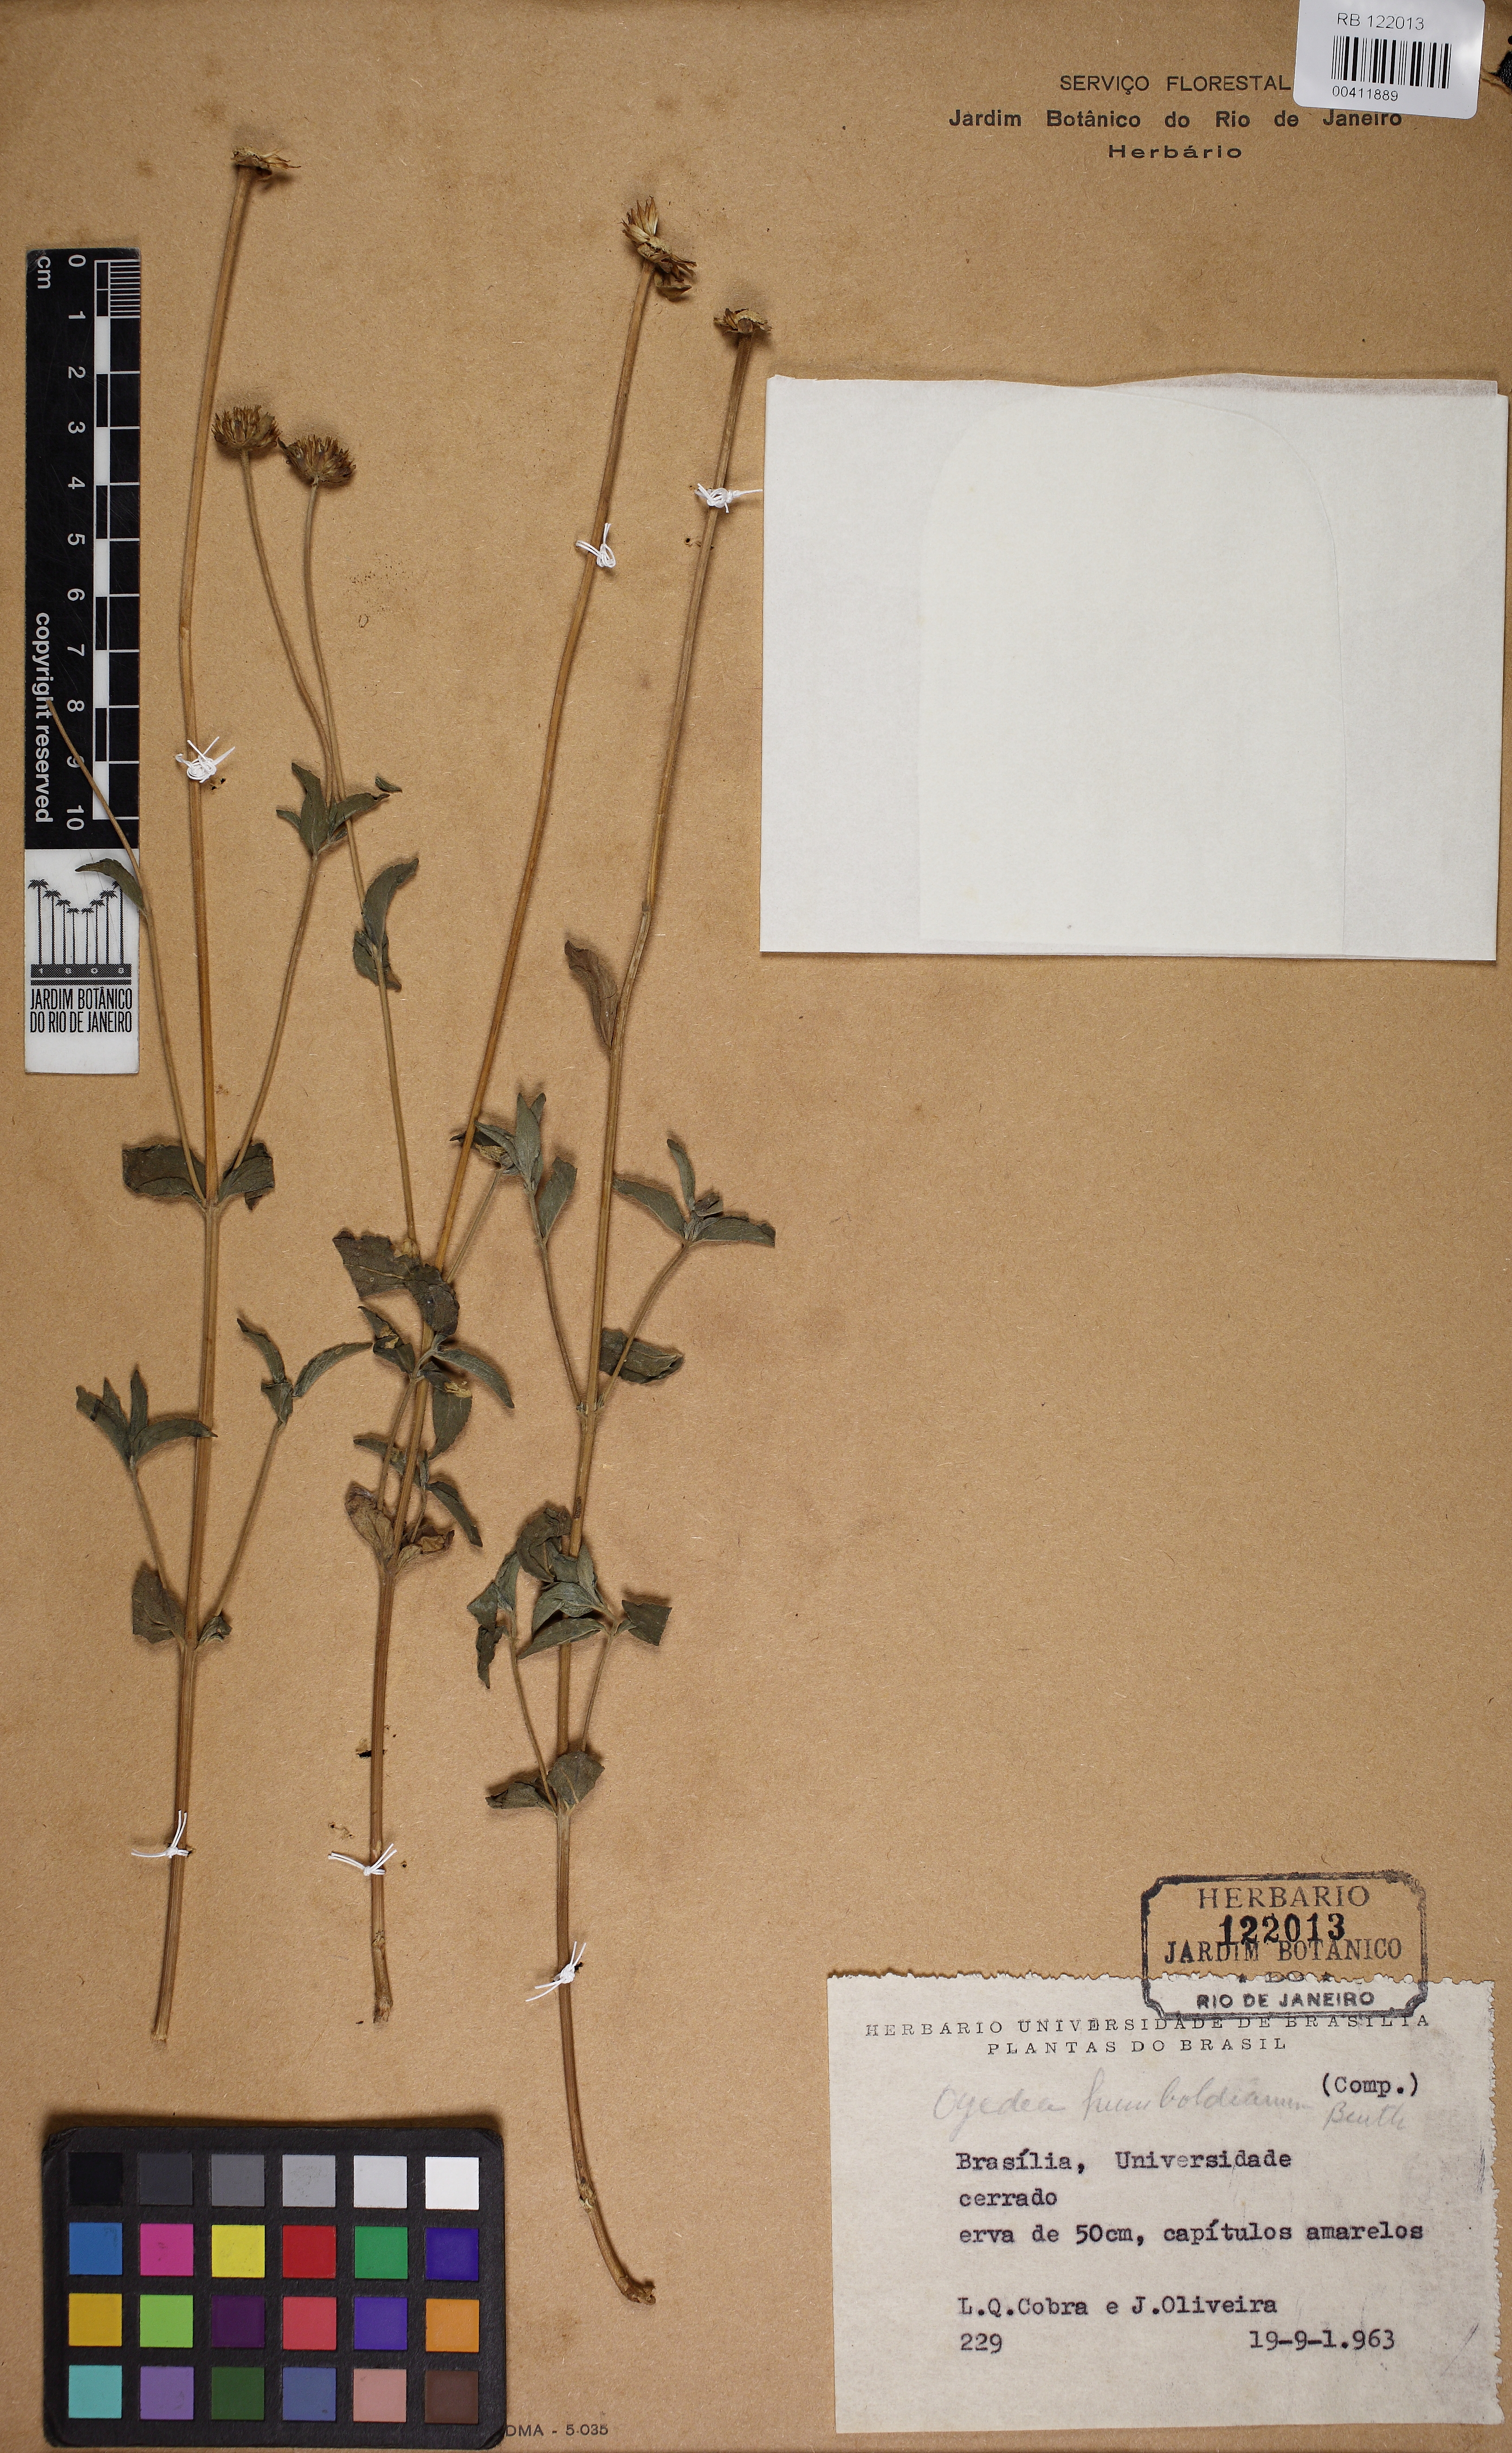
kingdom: Plantae
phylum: Tracheophyta
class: Magnoliopsida
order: Asterales
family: Asteraceae
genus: Dimerostemma
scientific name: Dimerostemma humboldtianum
